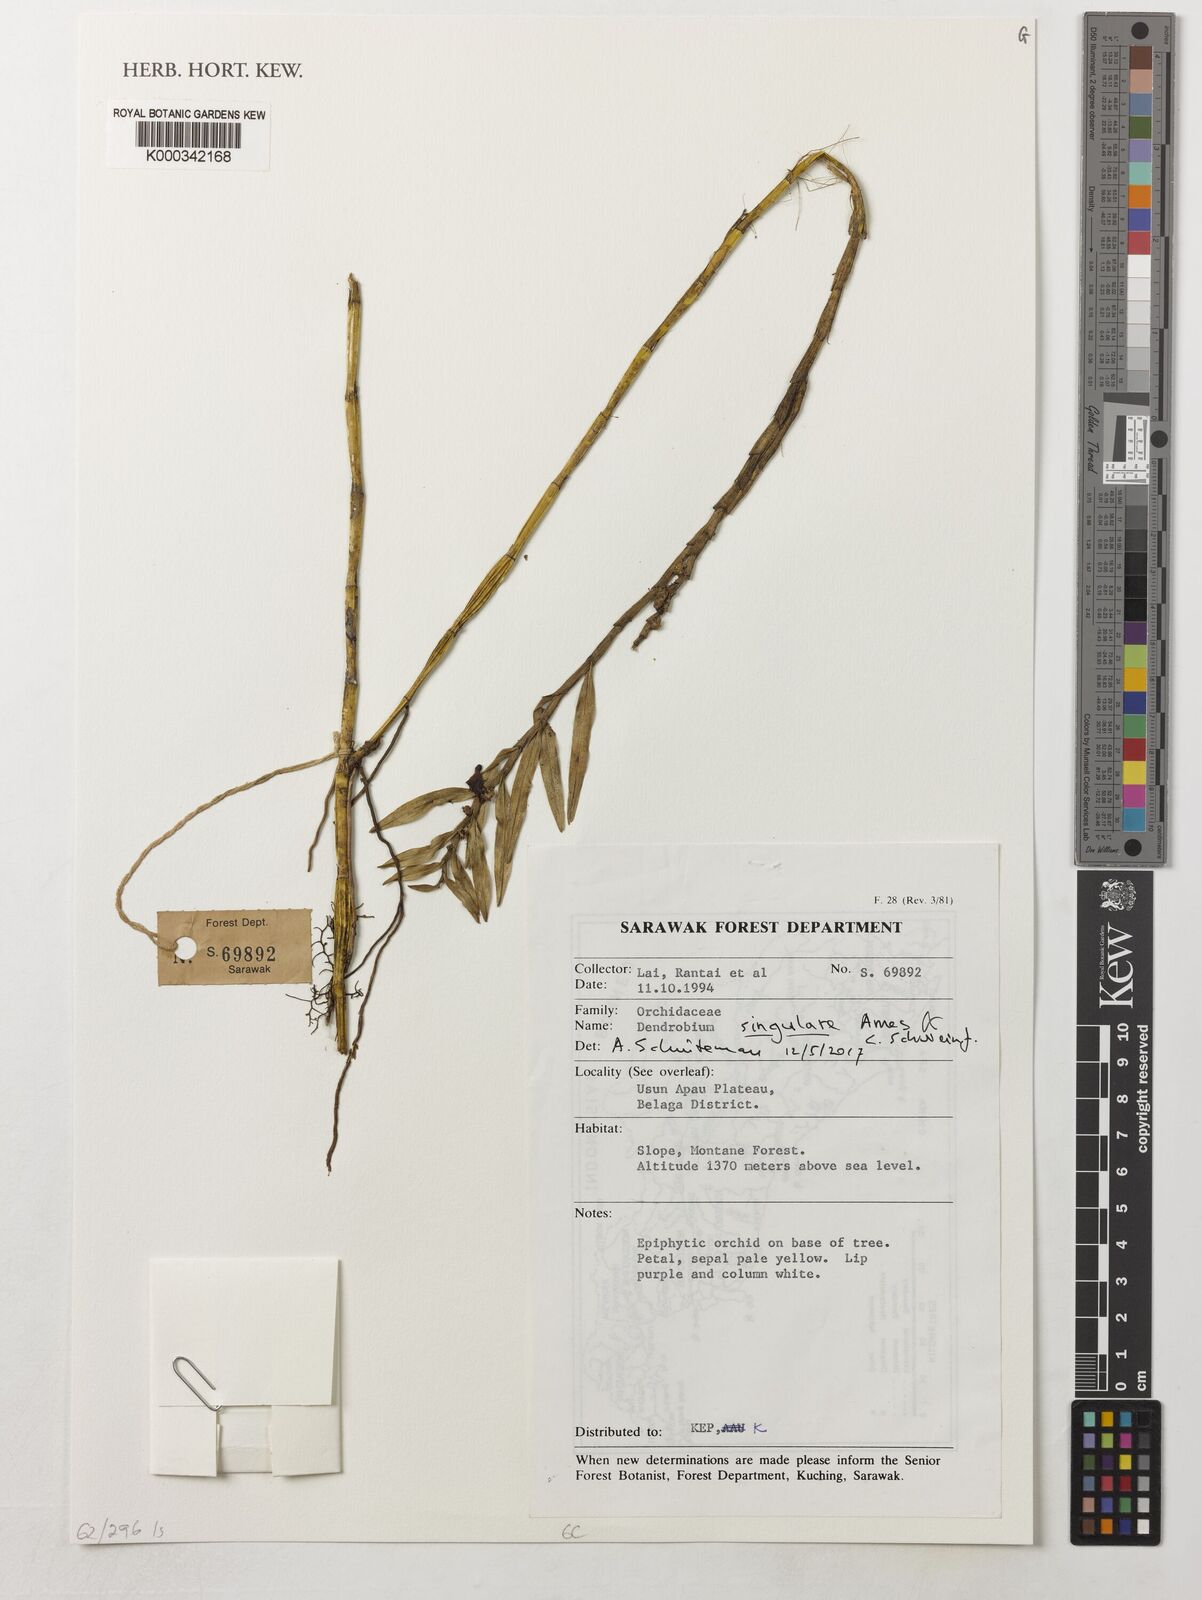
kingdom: Plantae
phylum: Tracheophyta
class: Liliopsida
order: Asparagales
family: Orchidaceae
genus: Dendrobium
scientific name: Dendrobium singulare
